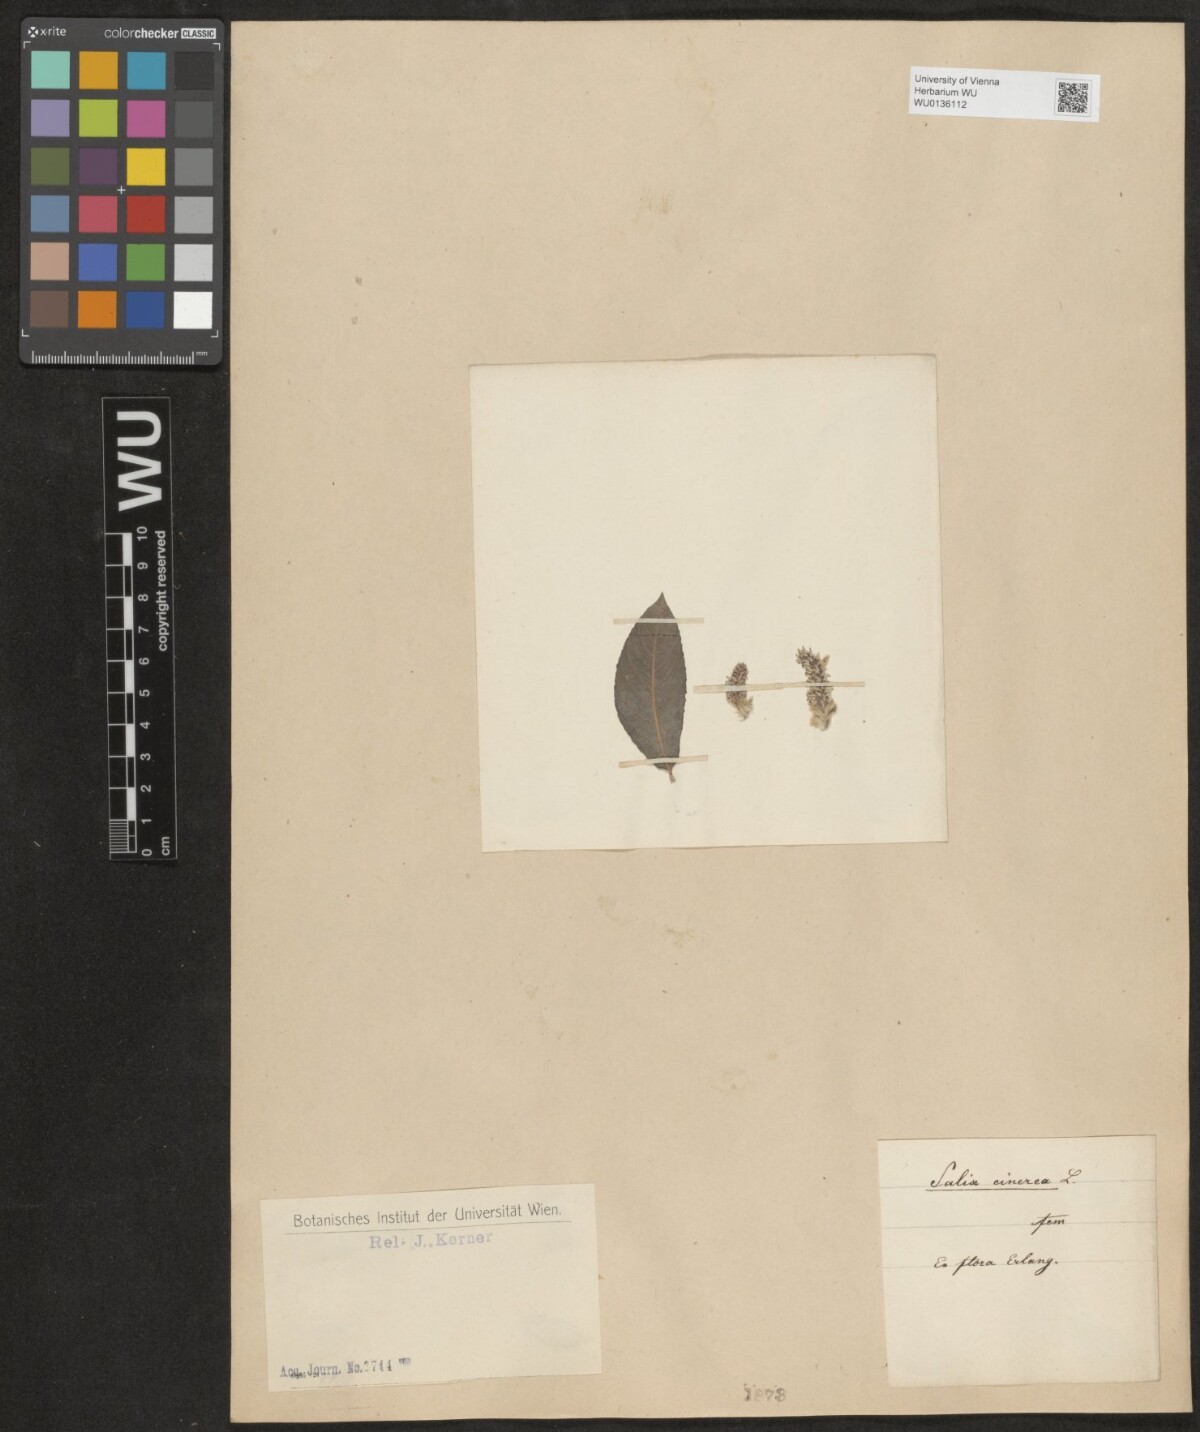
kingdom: Plantae
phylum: Tracheophyta
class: Magnoliopsida
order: Malpighiales
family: Salicaceae
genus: Salix
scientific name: Salix cinerea
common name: Common sallow
